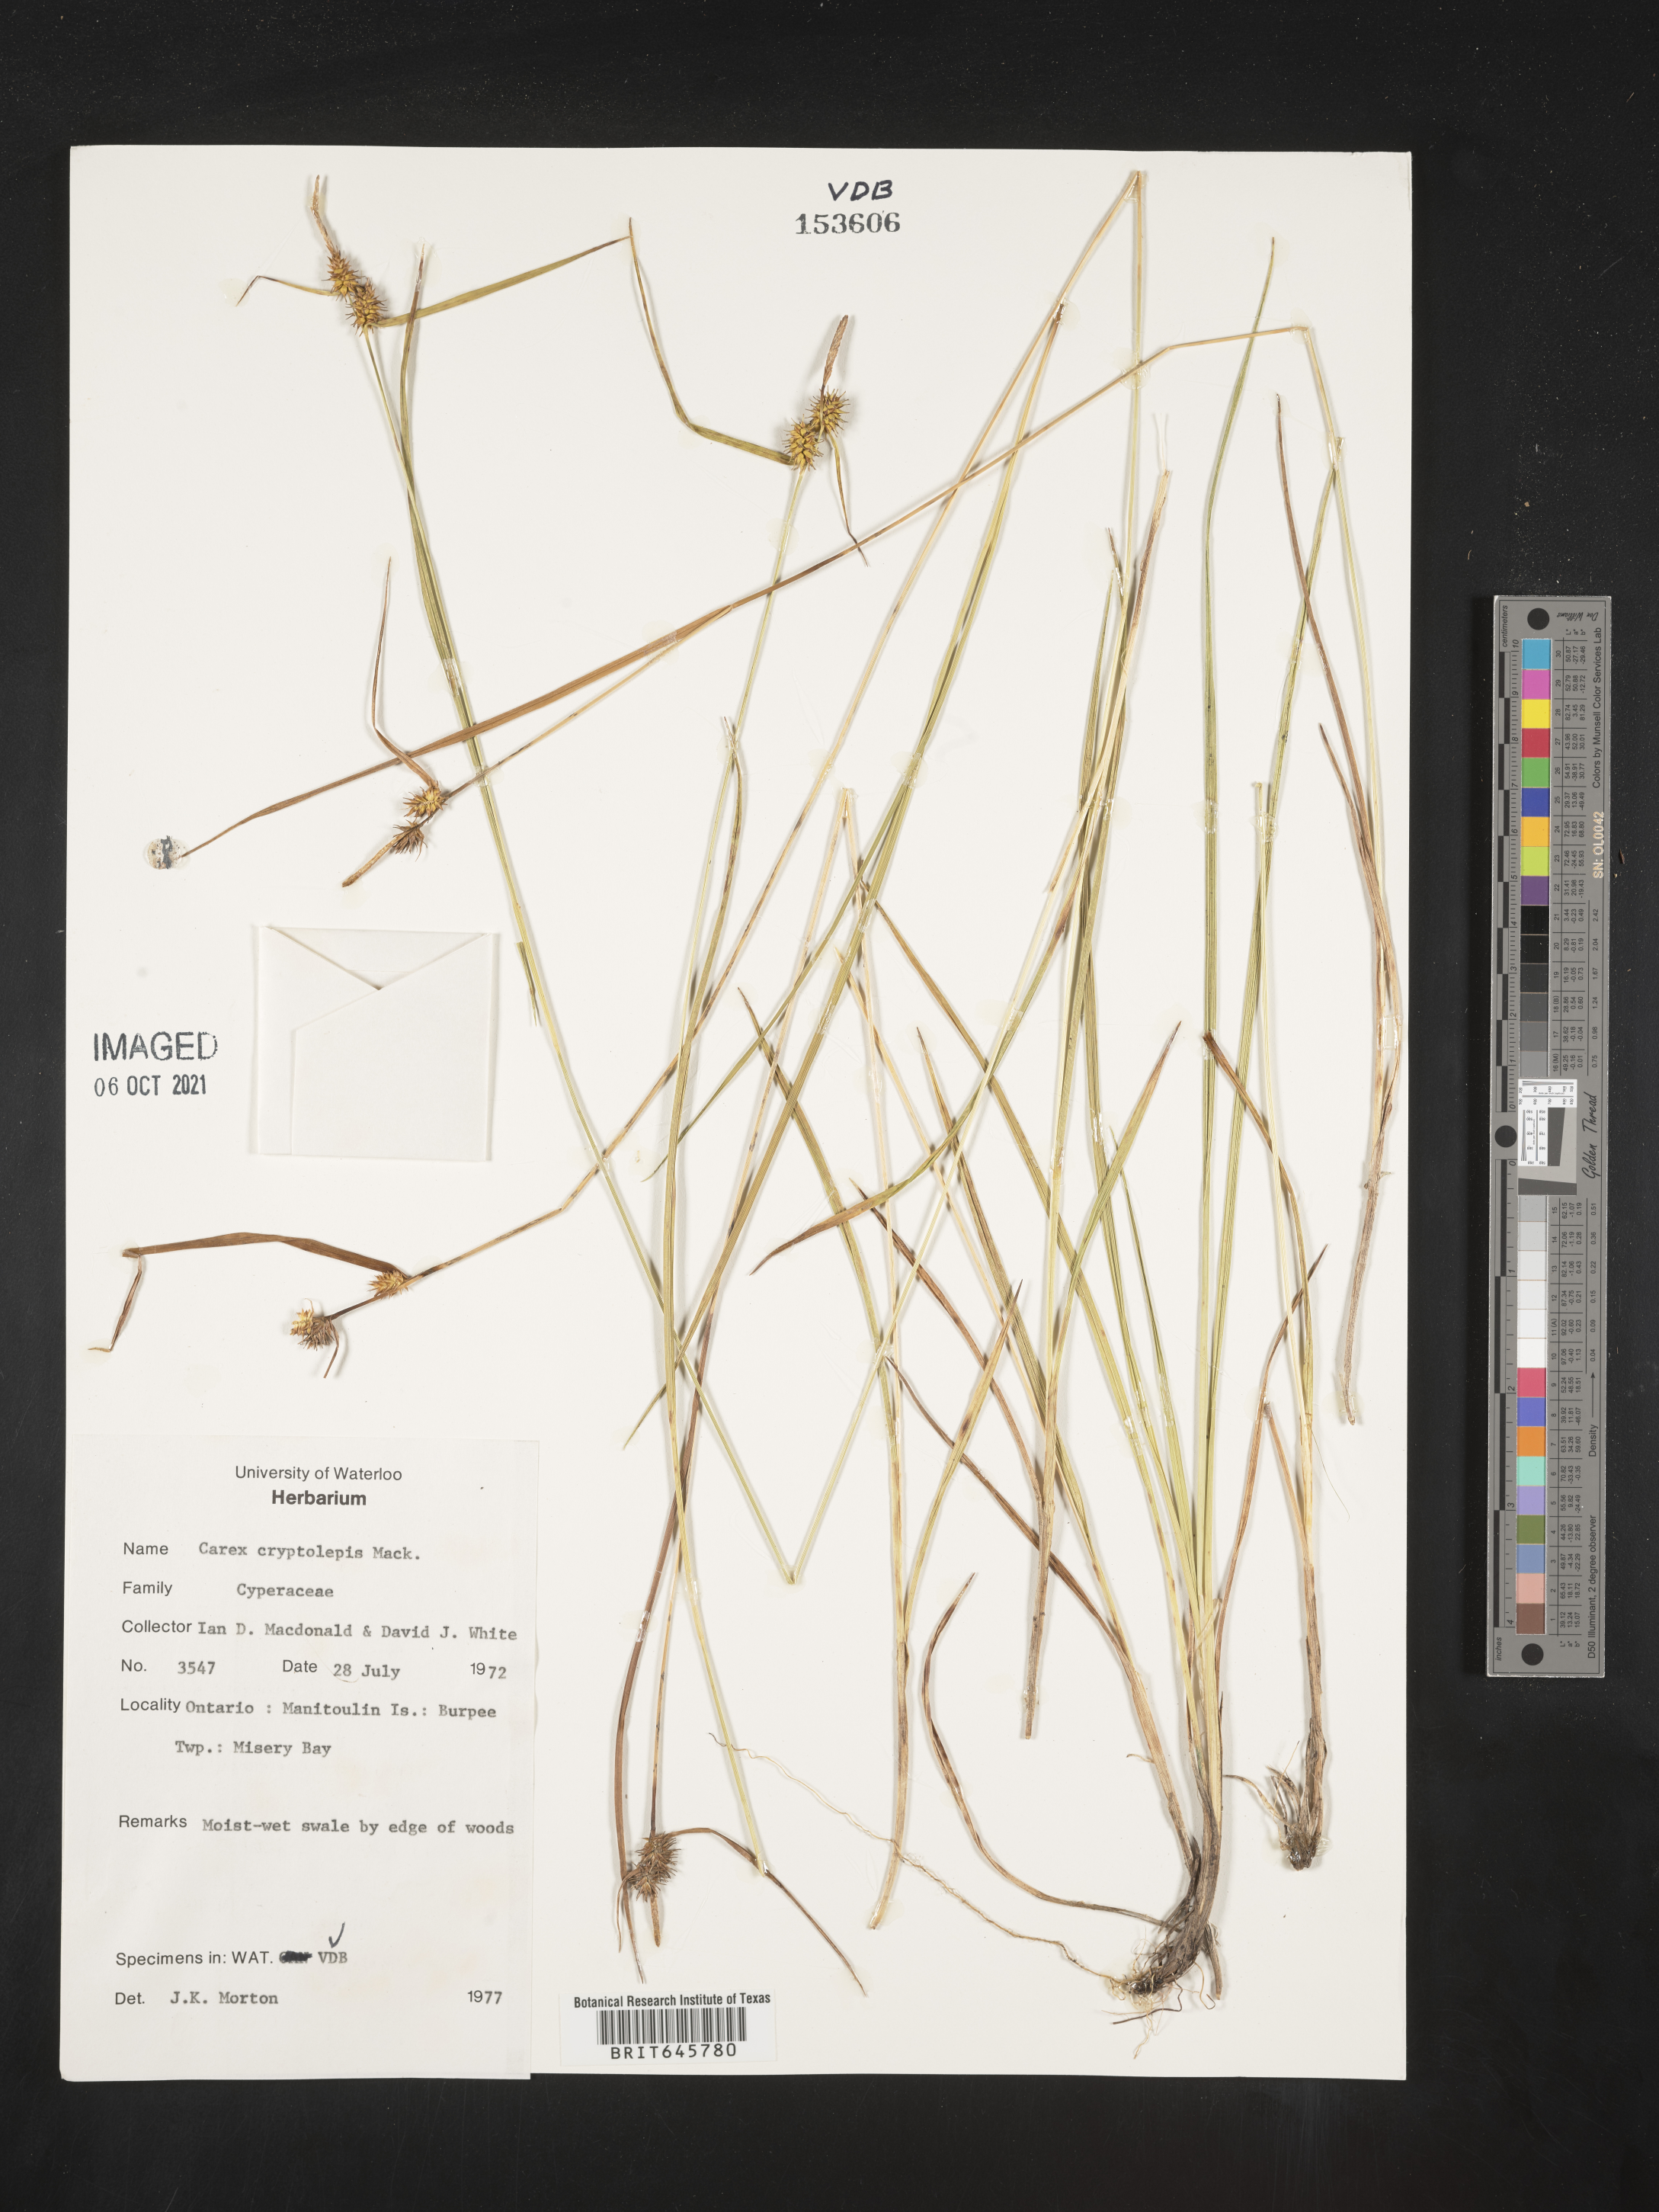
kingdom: Plantae
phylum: Tracheophyta
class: Liliopsida
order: Poales
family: Cyperaceae
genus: Carex
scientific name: Carex cryptolepis
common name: Northeastern sedge
